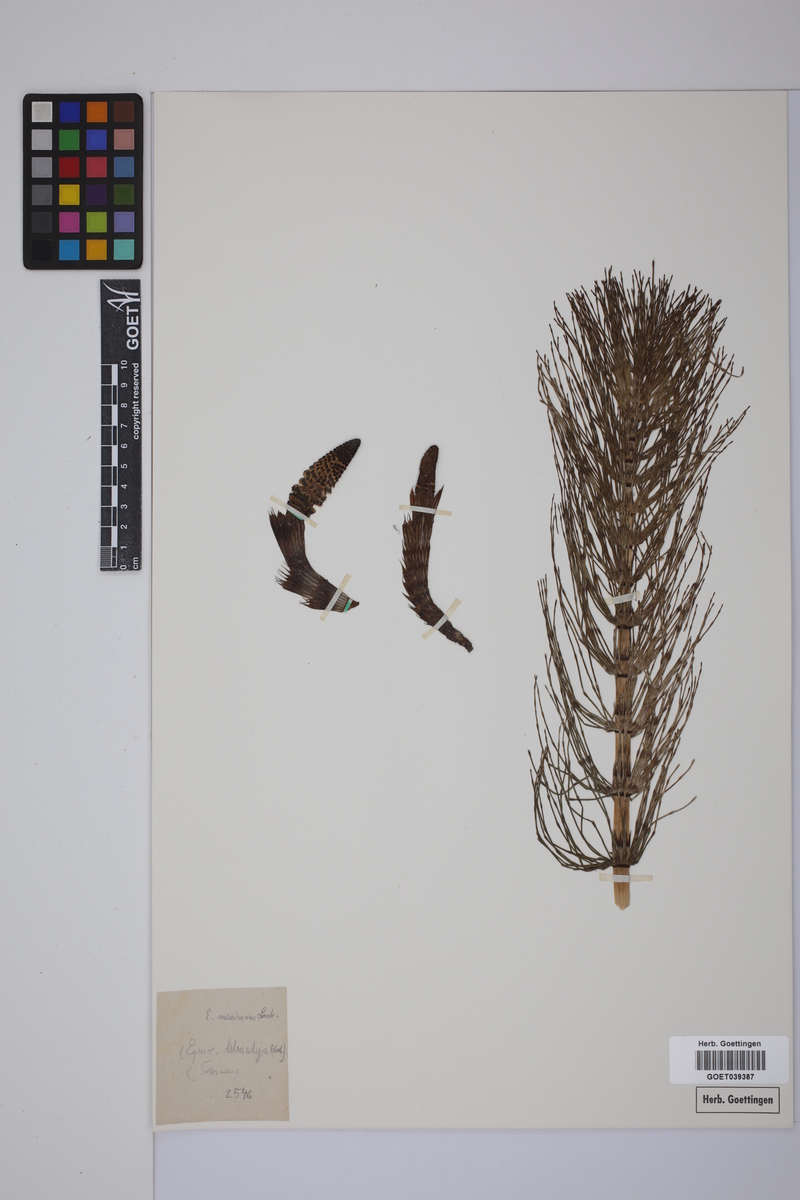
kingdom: Plantae
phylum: Tracheophyta
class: Polypodiopsida
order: Equisetales
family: Equisetaceae
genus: Equisetum
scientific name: Equisetum telmateia
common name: Great horsetail
